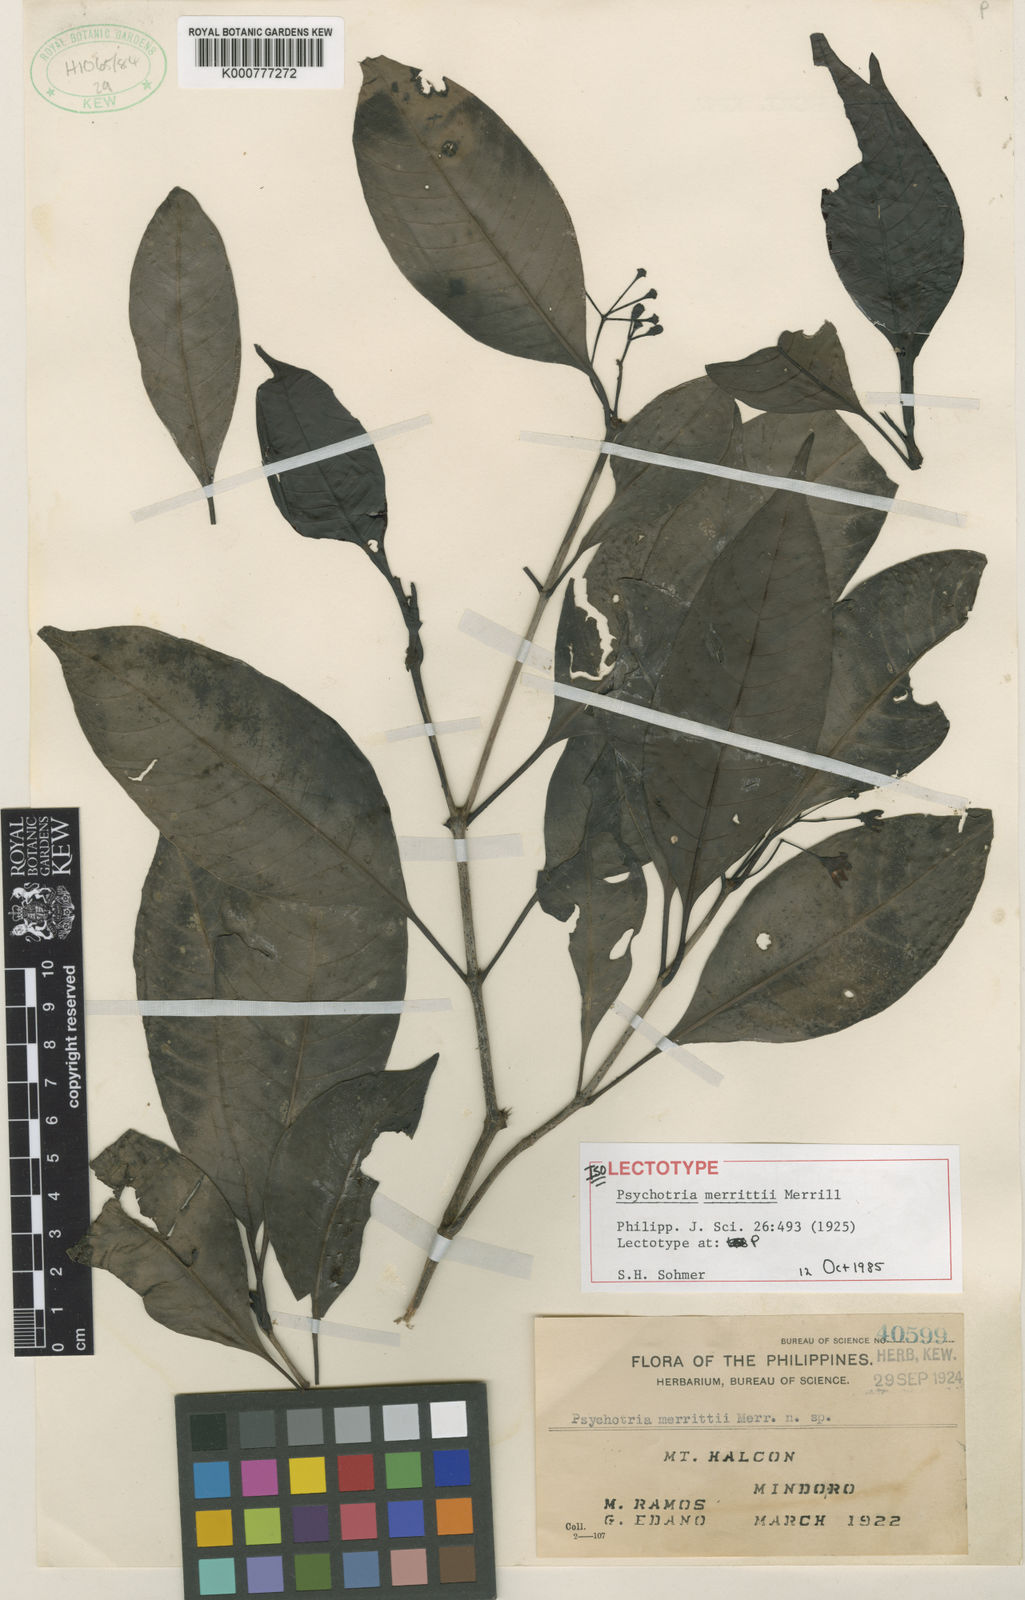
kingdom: Plantae
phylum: Tracheophyta
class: Magnoliopsida
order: Gentianales
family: Rubiaceae
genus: Psychotria
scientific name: Psychotria merrittii
